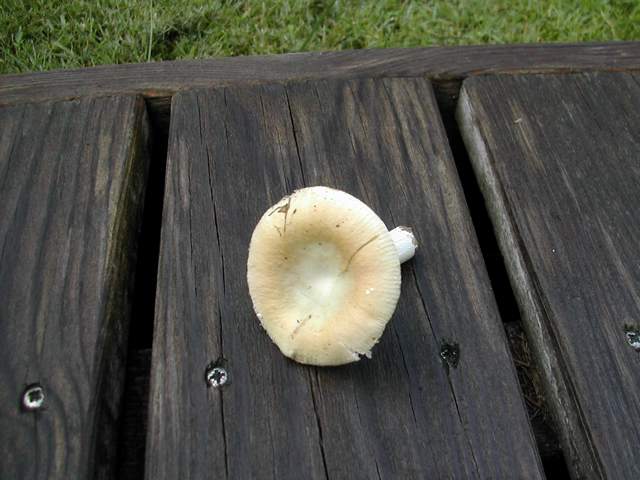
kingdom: Fungi
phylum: Basidiomycota
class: Agaricomycetes
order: Russulales
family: Russulaceae
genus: Russula
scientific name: Russula roseoaurantia
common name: kornet skørhat
